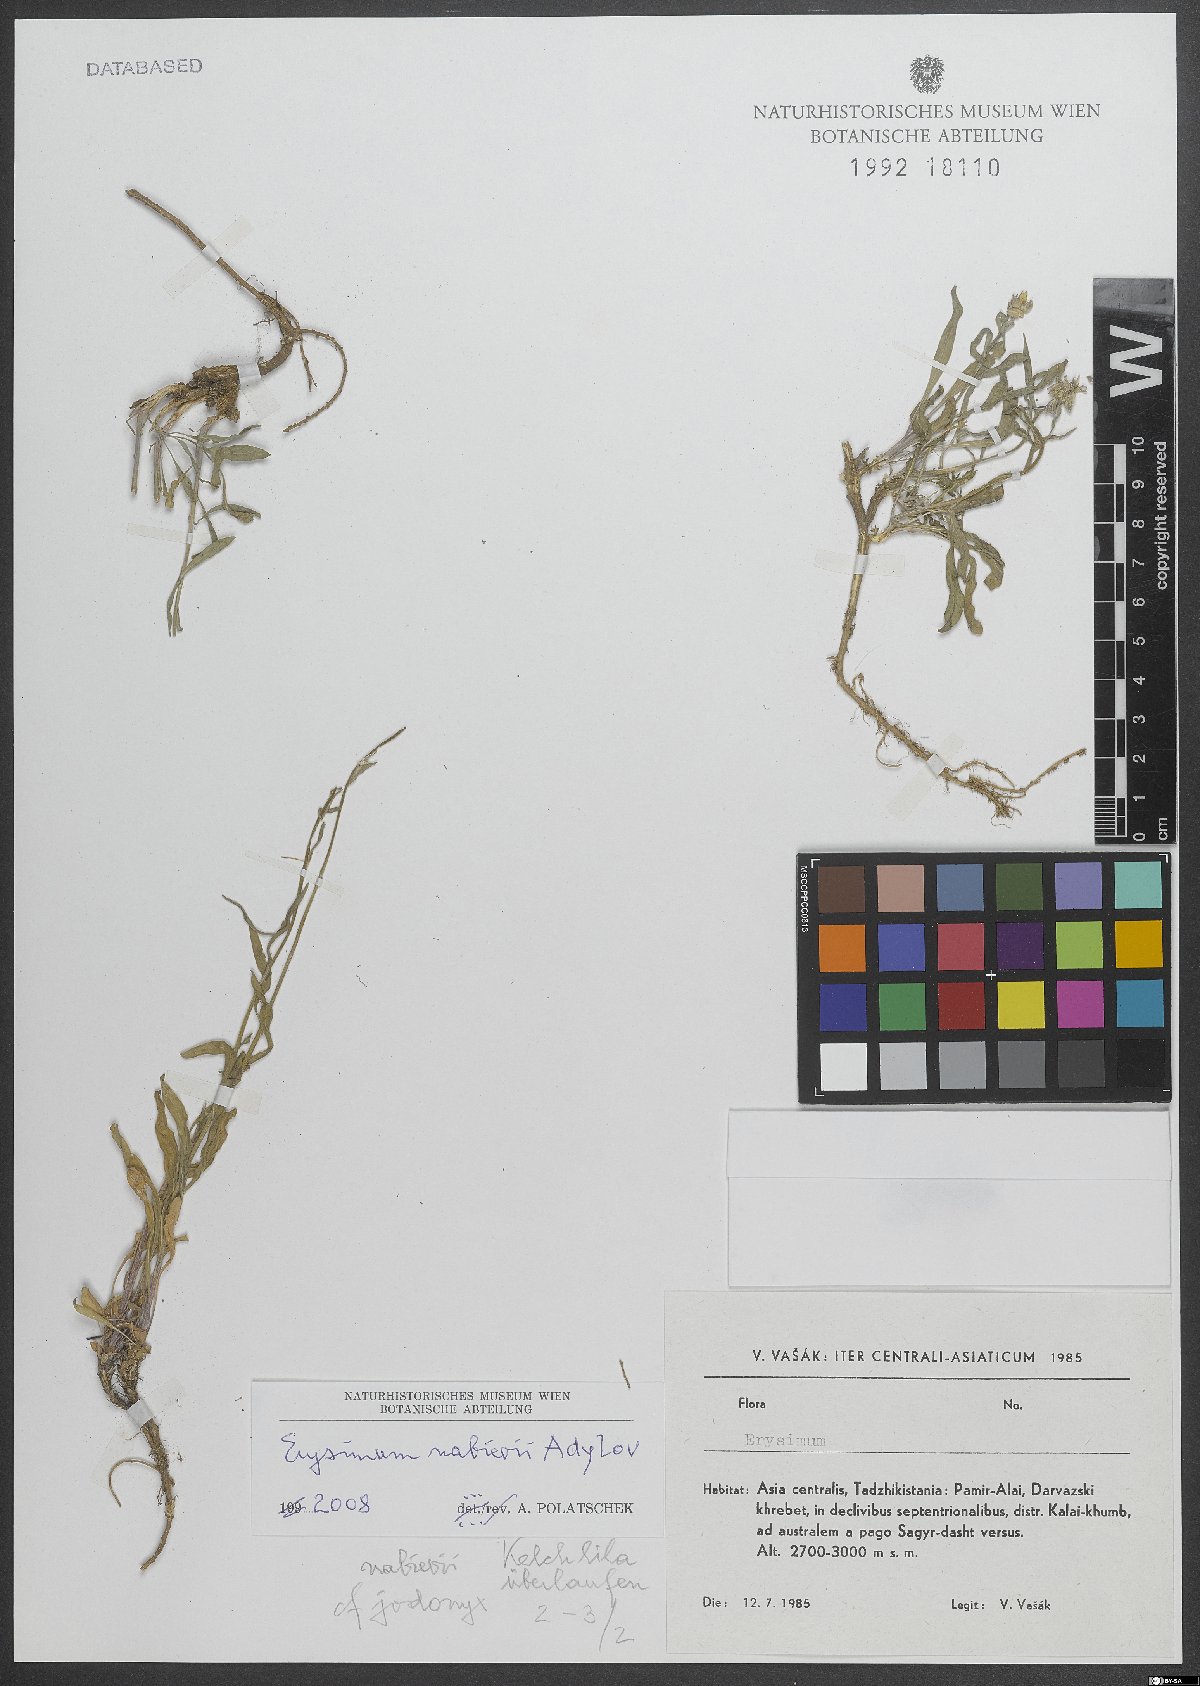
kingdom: Plantae
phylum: Tracheophyta
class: Magnoliopsida
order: Brassicales
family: Brassicaceae
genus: Erysimum
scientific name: Erysimum nabievii
